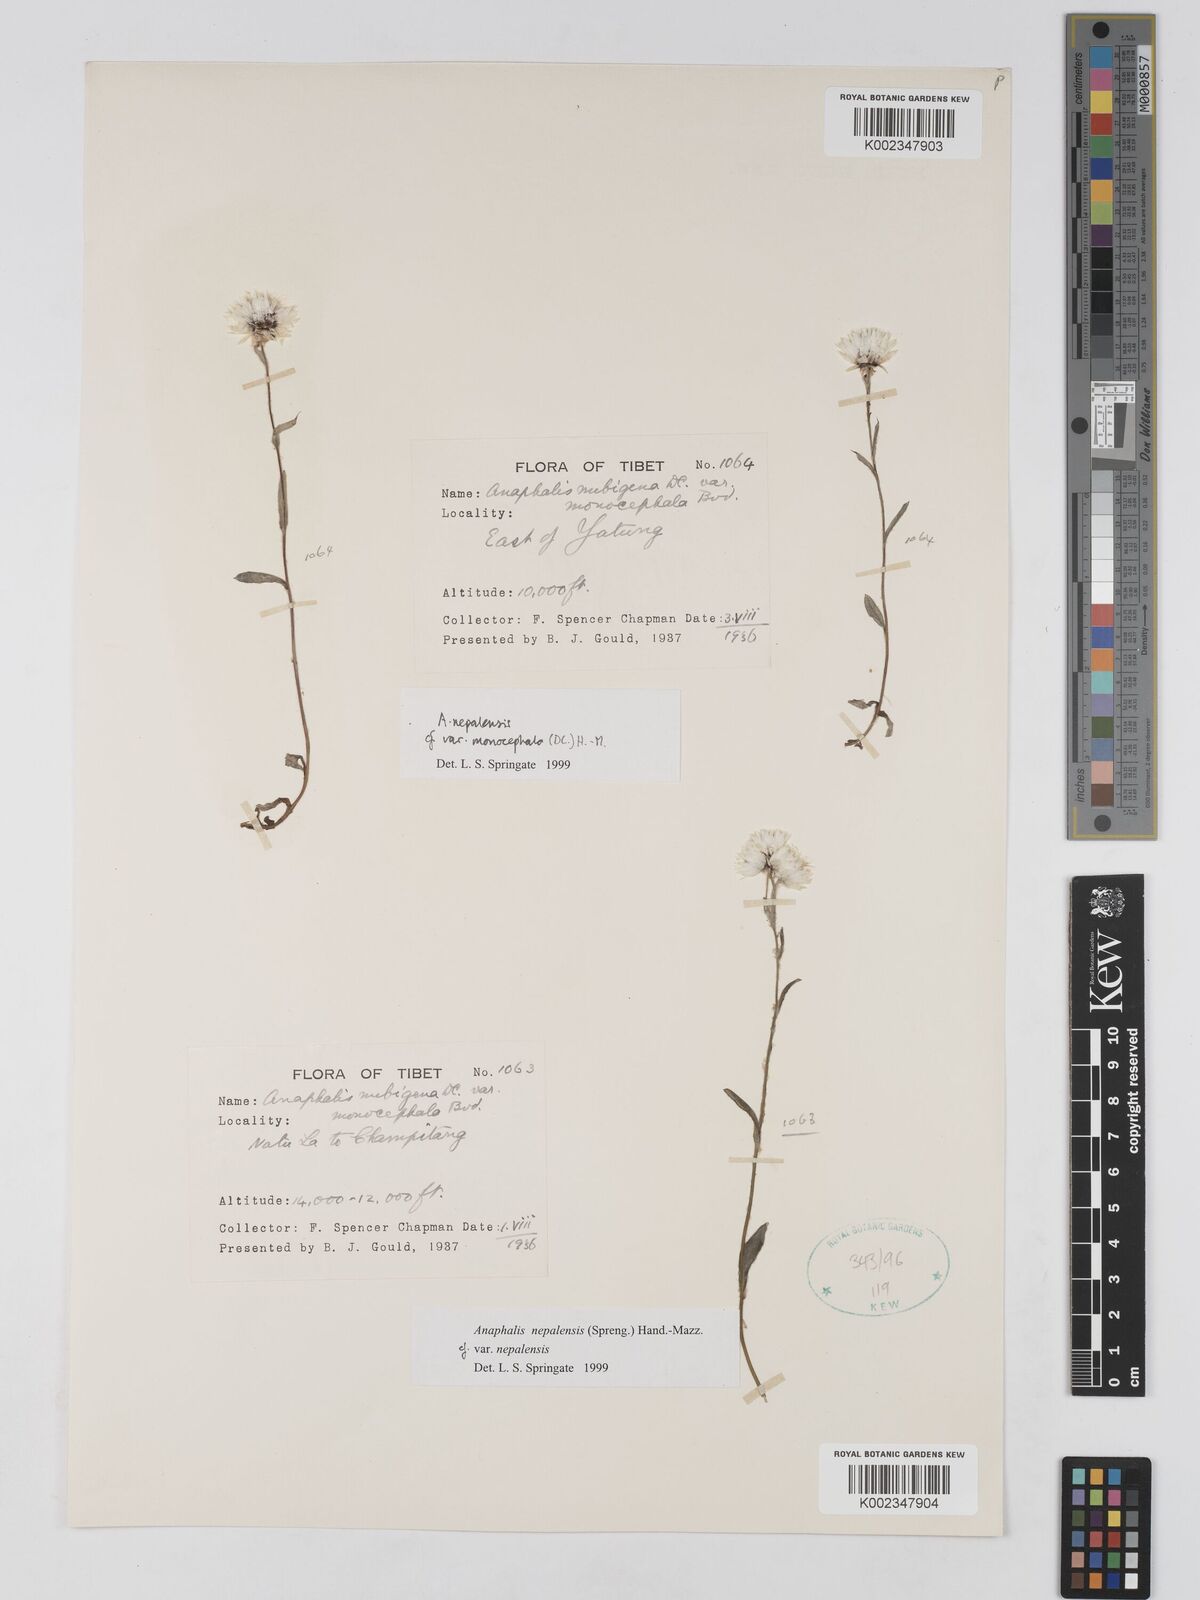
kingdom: Plantae
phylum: Tracheophyta
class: Magnoliopsida
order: Asterales
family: Asteraceae
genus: Anaphalis
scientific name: Anaphalis nepalensis
